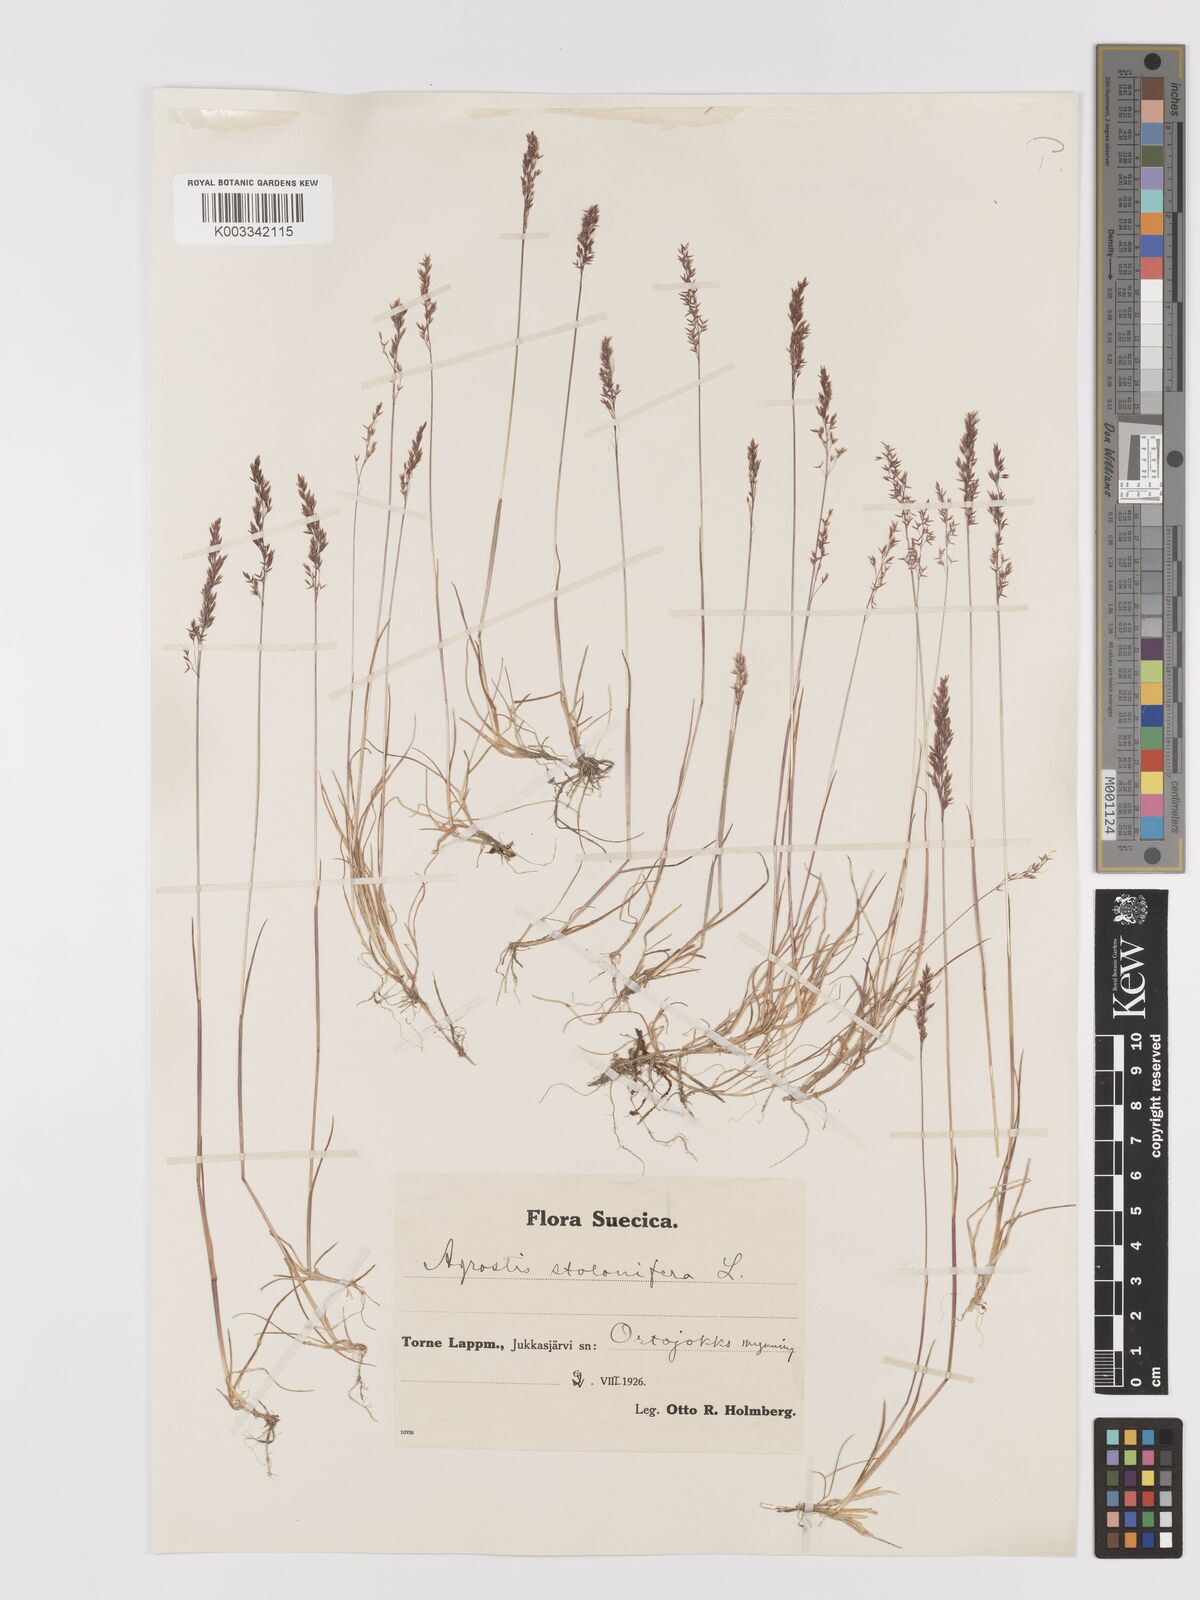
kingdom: Plantae
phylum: Tracheophyta
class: Liliopsida
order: Poales
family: Poaceae
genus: Agrostis
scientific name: Agrostis stolonifera
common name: Creeping bentgrass
